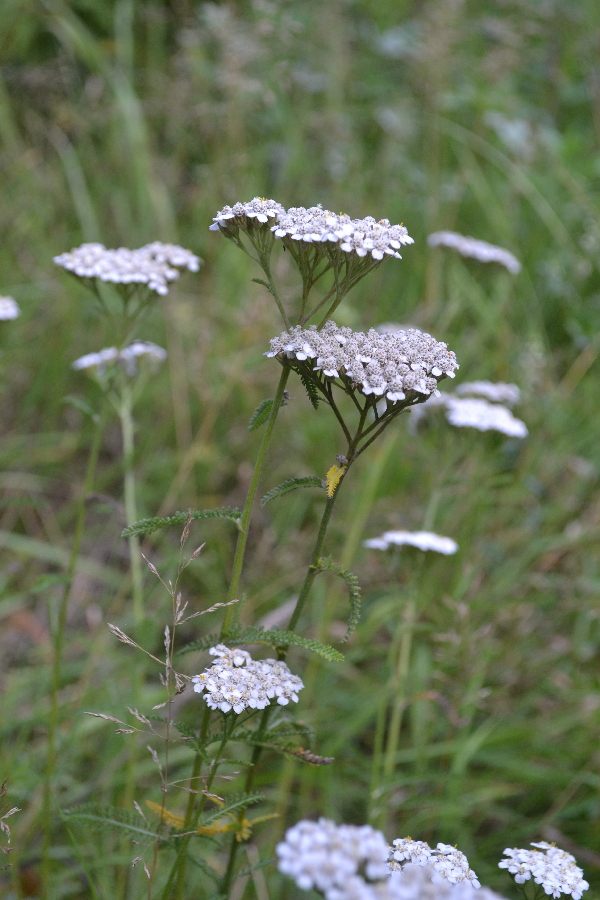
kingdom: Plantae
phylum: Tracheophyta
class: Magnoliopsida
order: Asterales
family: Asteraceae
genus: Achillea
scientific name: Achillea millefolium
